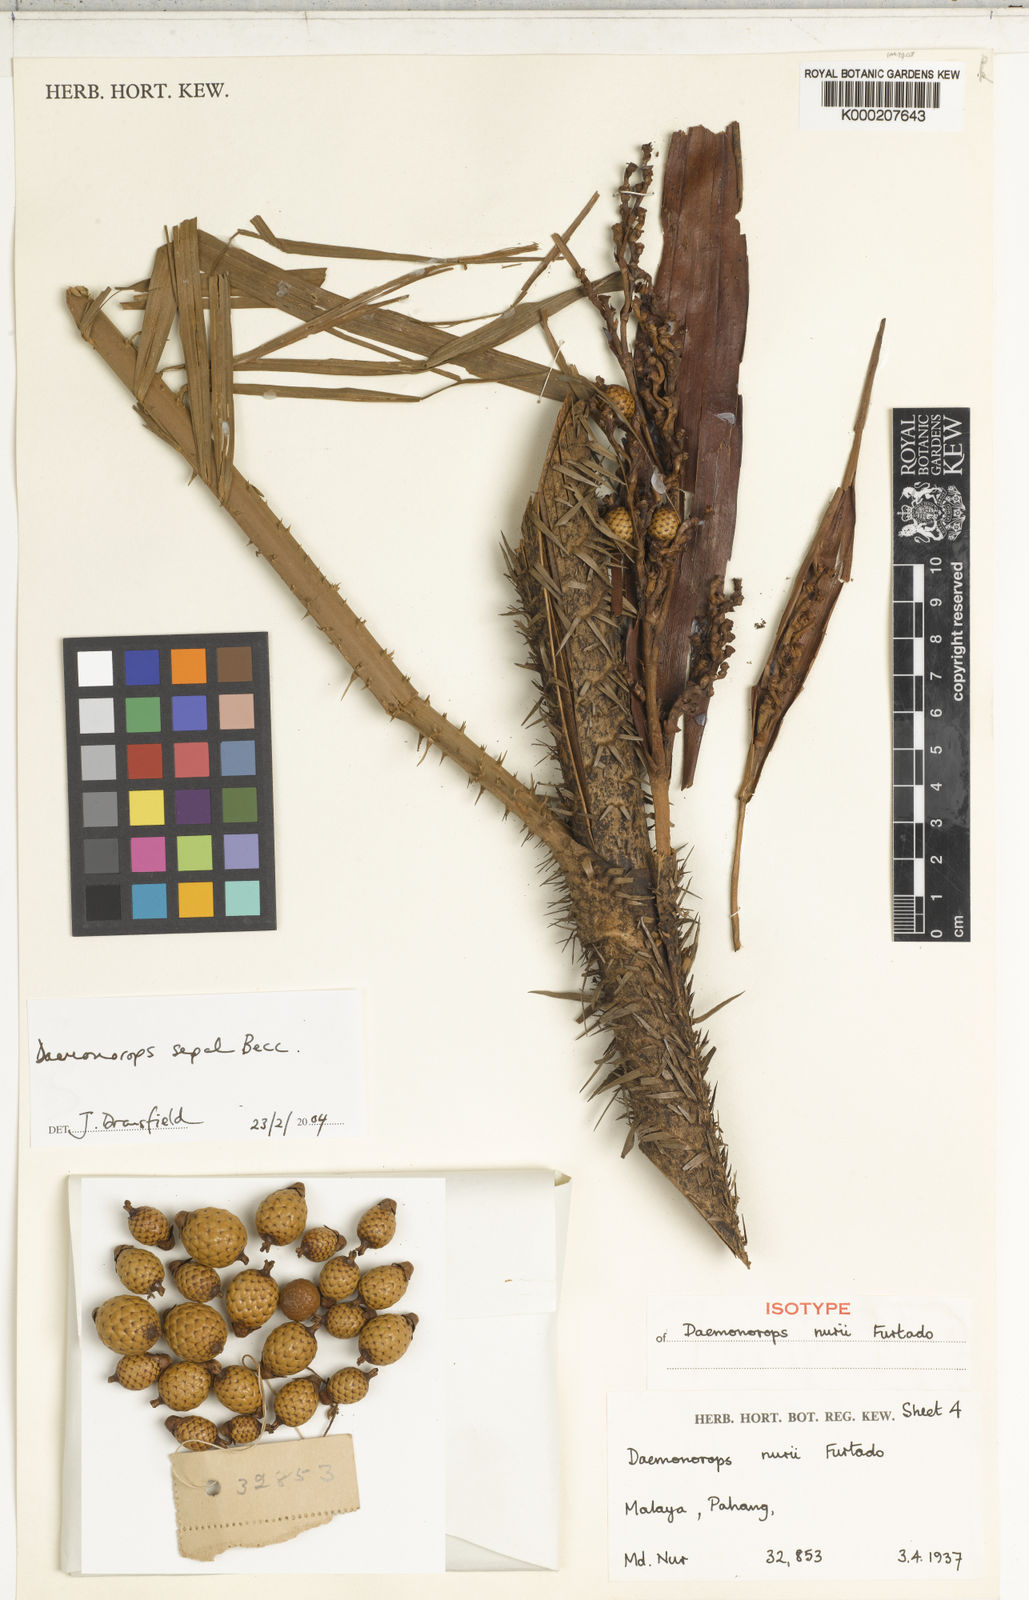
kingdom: Plantae
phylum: Tracheophyta
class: Liliopsida
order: Arecales
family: Arecaceae
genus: Calamus
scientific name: Calamus melanochaetes
